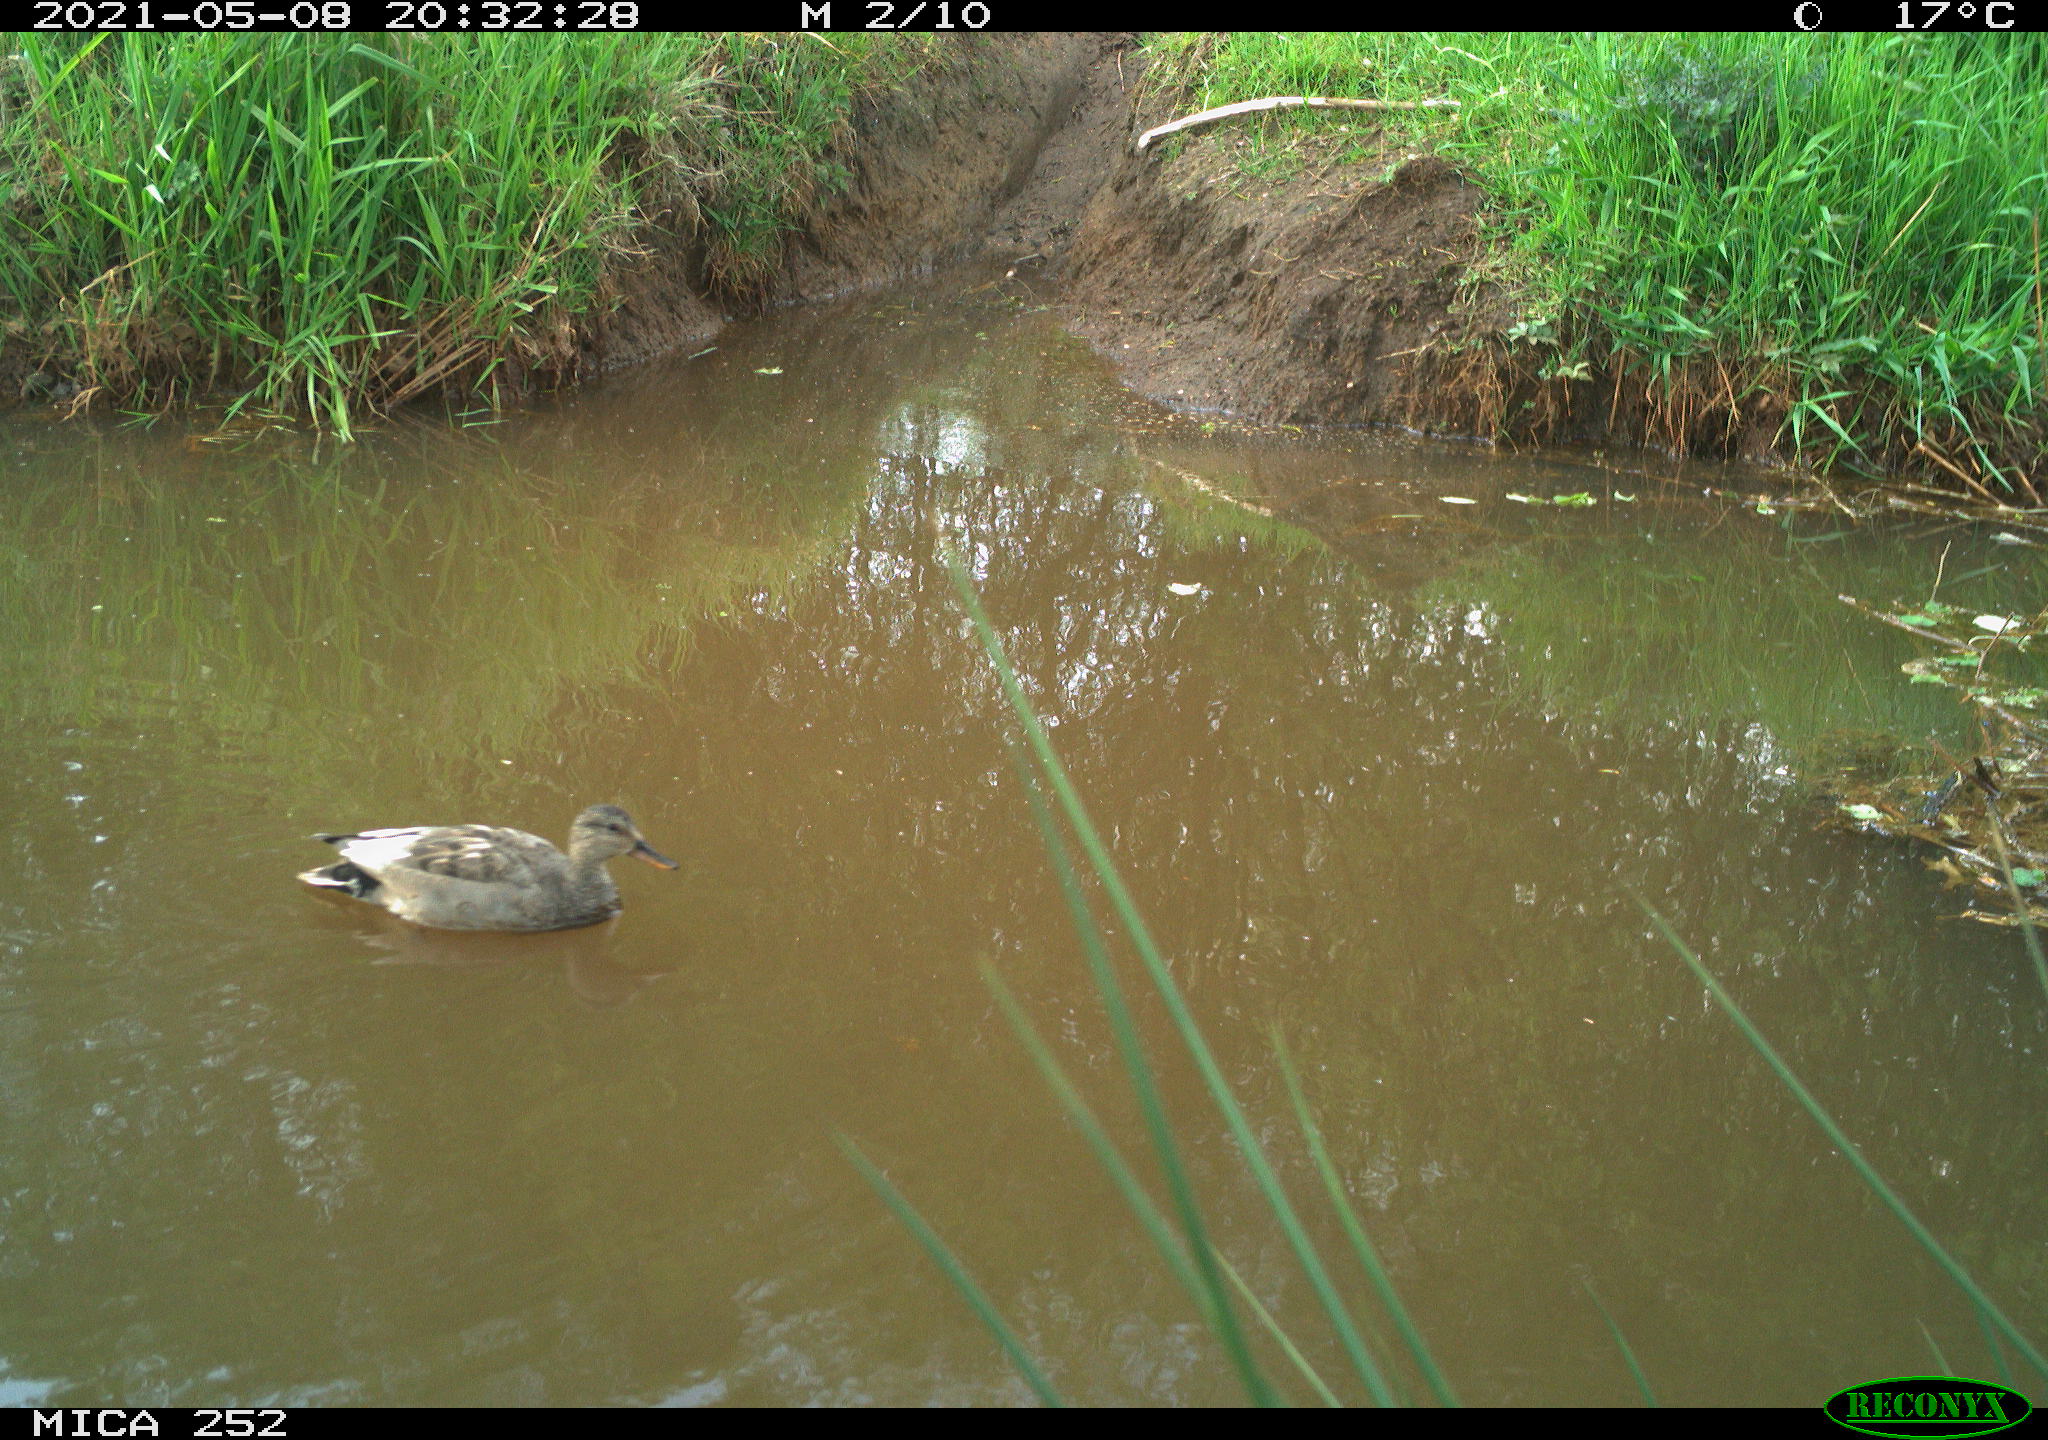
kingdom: Animalia
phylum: Chordata
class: Aves
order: Anseriformes
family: Anatidae
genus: Anas
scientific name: Anas
